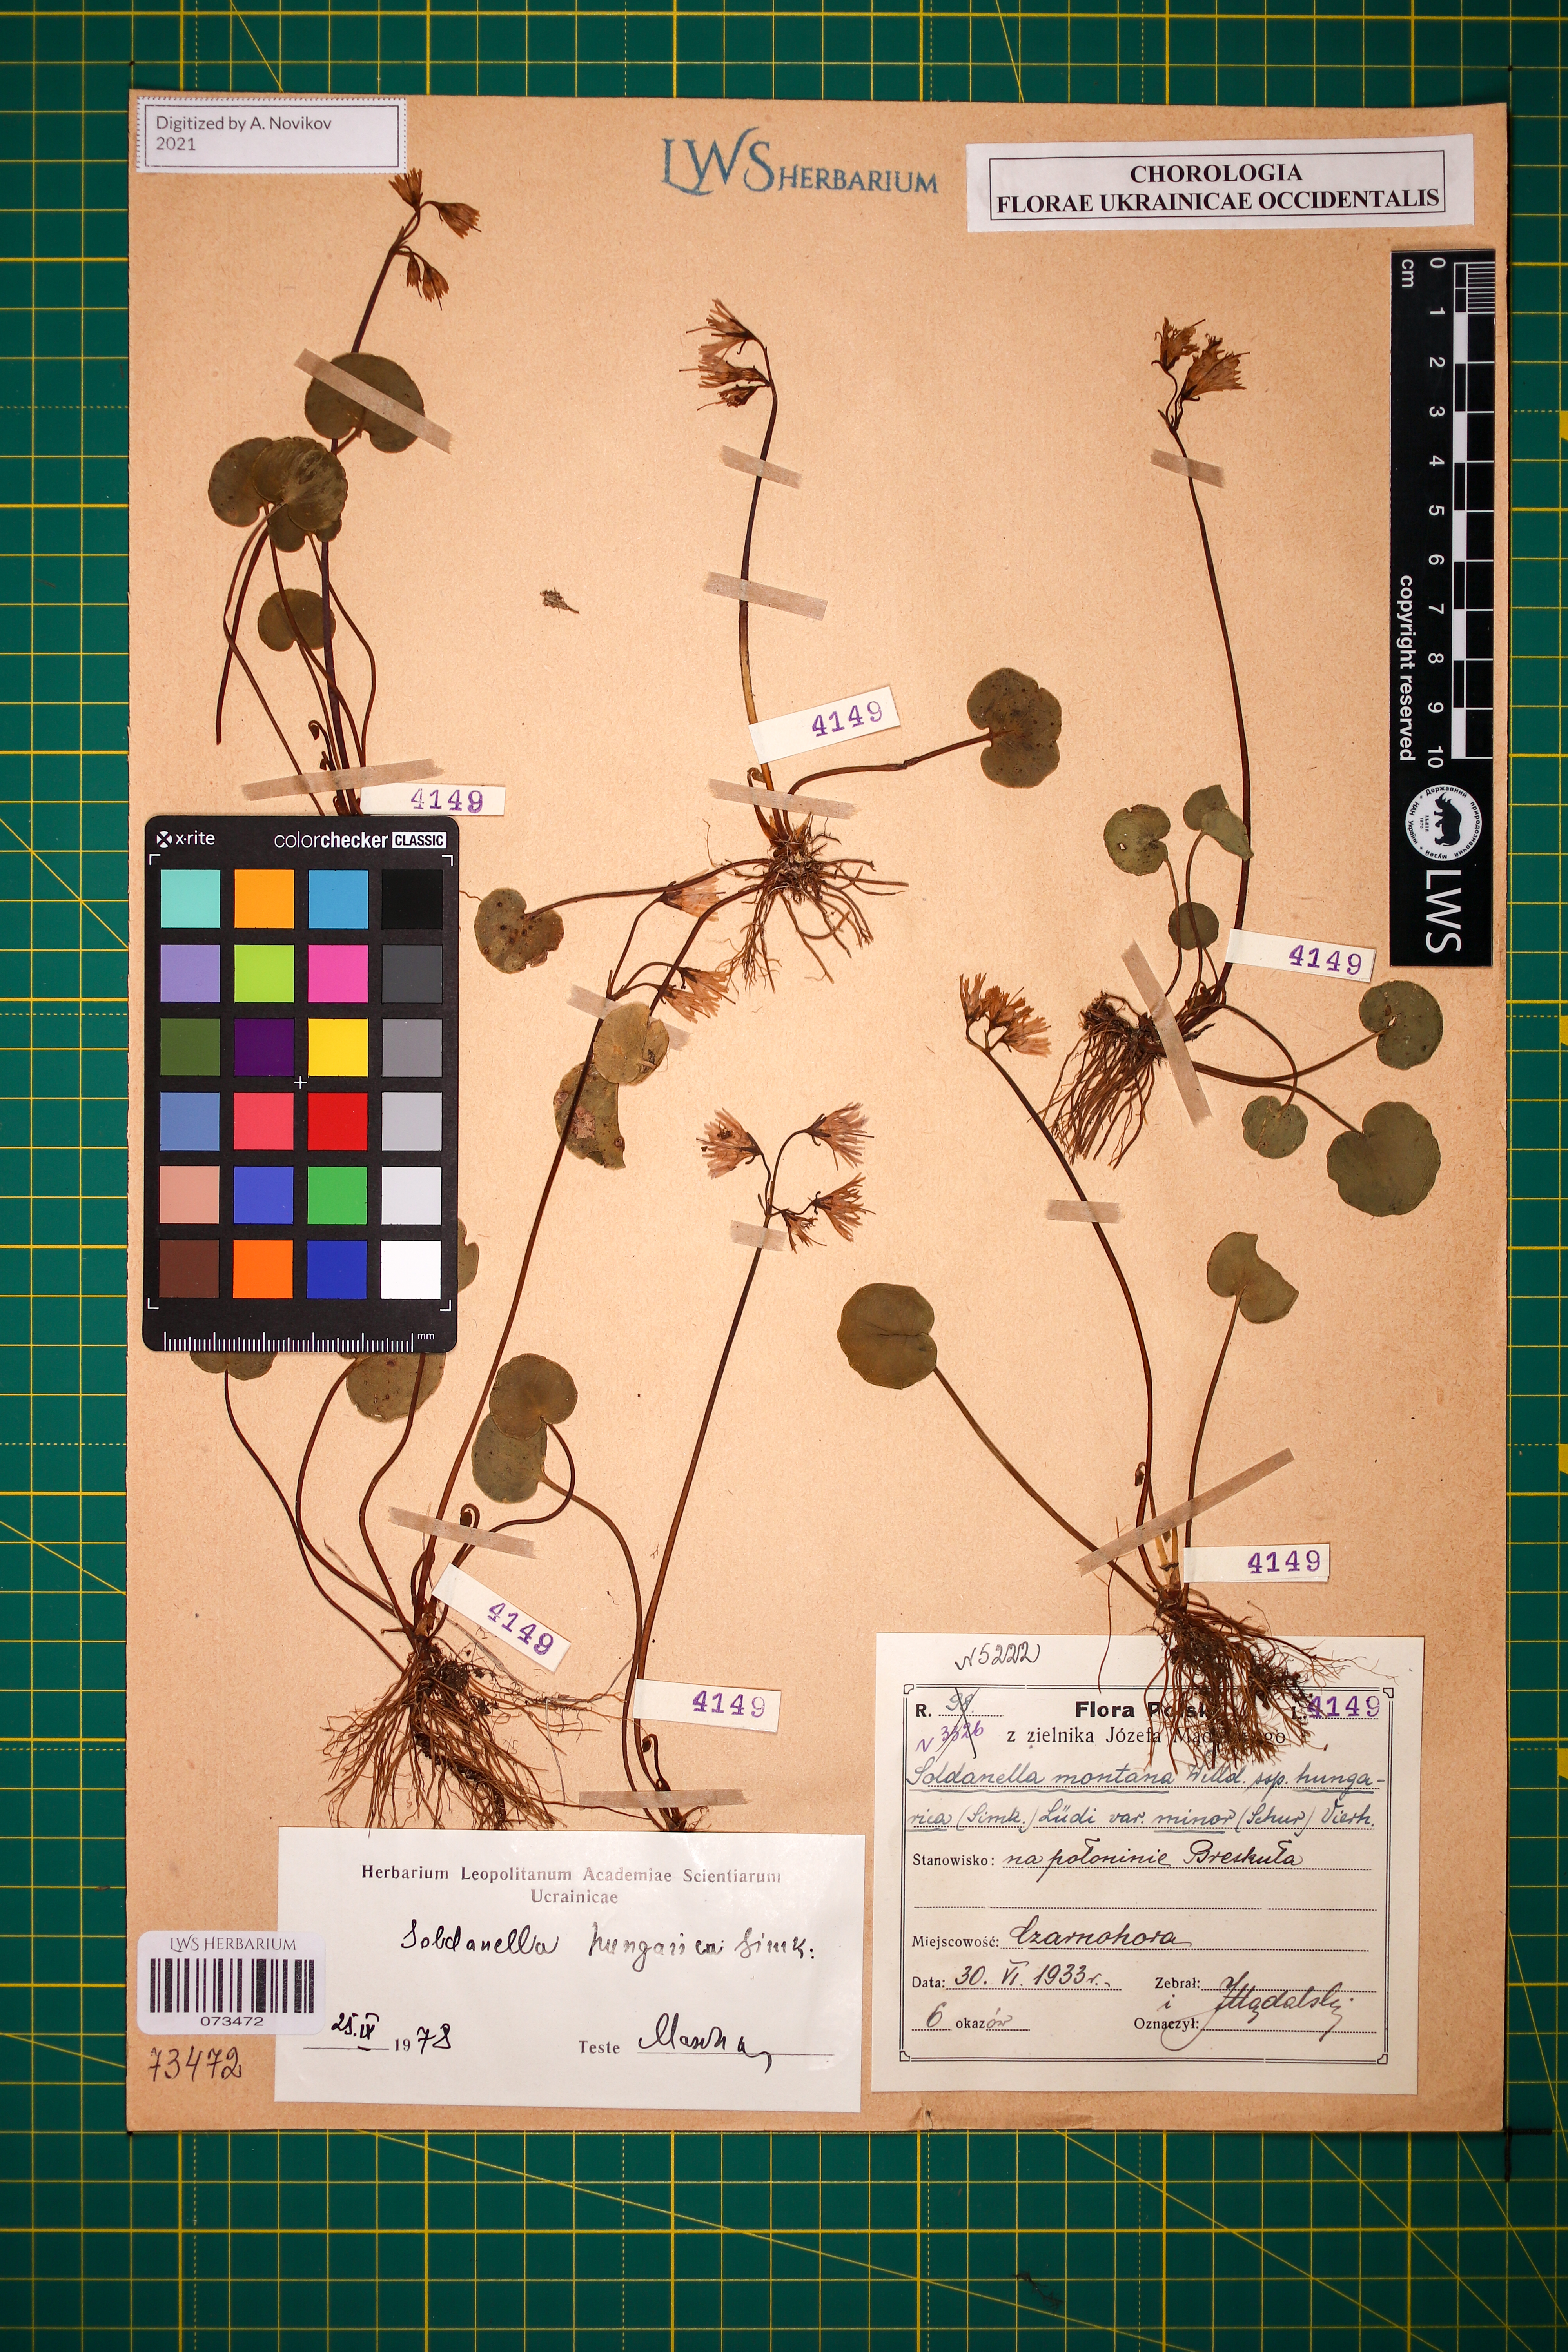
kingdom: Plantae
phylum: Tracheophyta
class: Magnoliopsida
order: Ericales
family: Primulaceae
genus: Soldanella
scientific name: Soldanella hungarica
